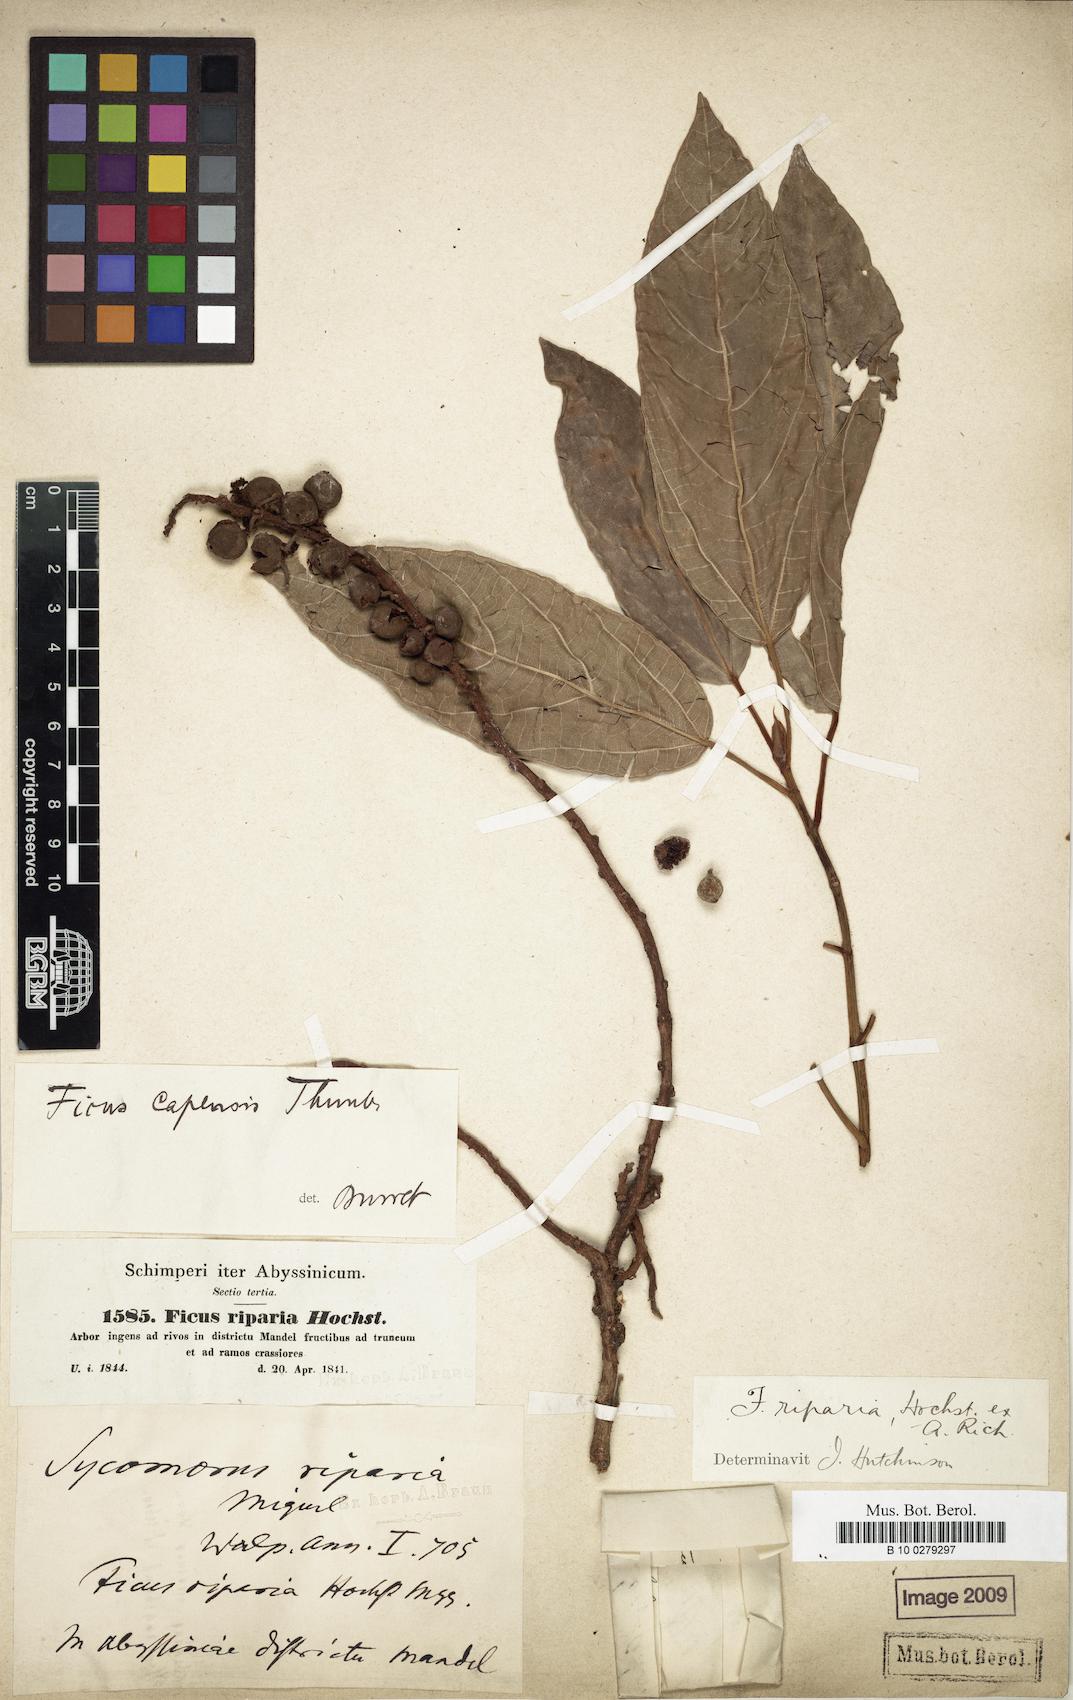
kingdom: Plantae
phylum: Tracheophyta
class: Magnoliopsida
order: Rosales
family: Moraceae
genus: Ficus
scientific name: Ficus riparia
